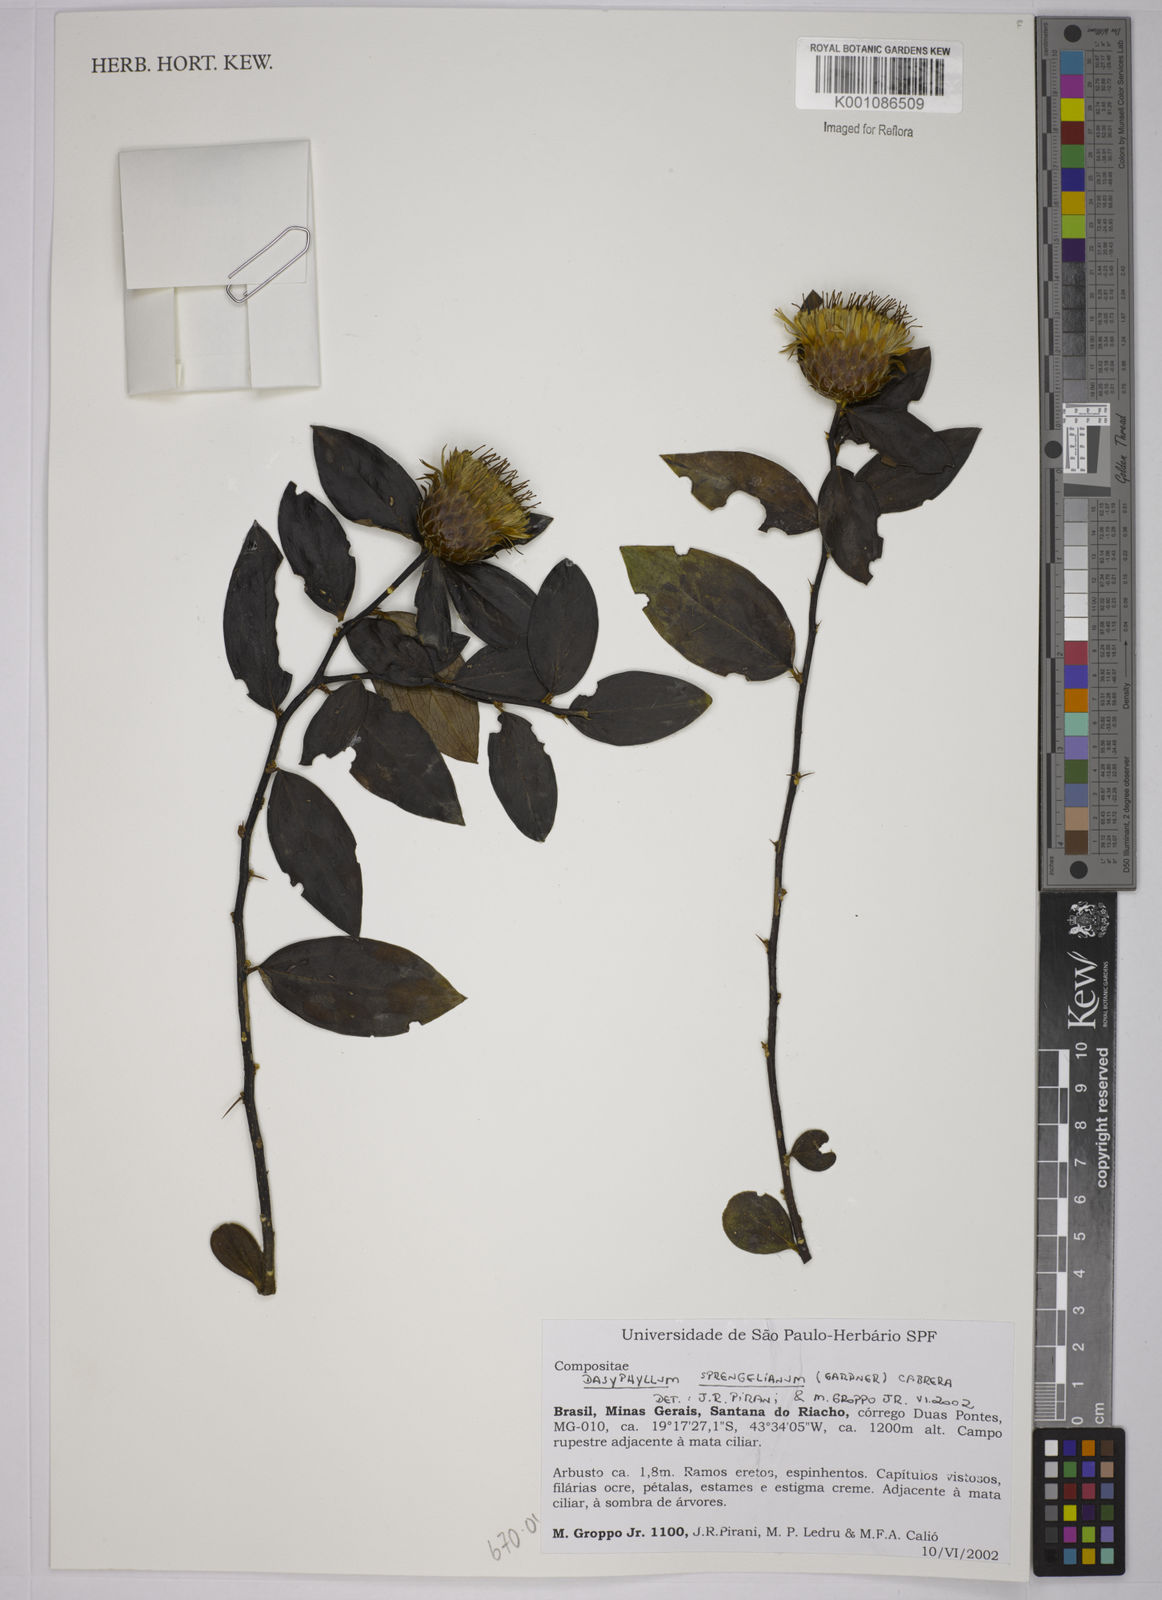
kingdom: Plantae
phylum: Tracheophyta
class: Magnoliopsida
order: Asterales
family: Asteraceae
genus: Dasyphyllum
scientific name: Dasyphyllum sprengelianum
